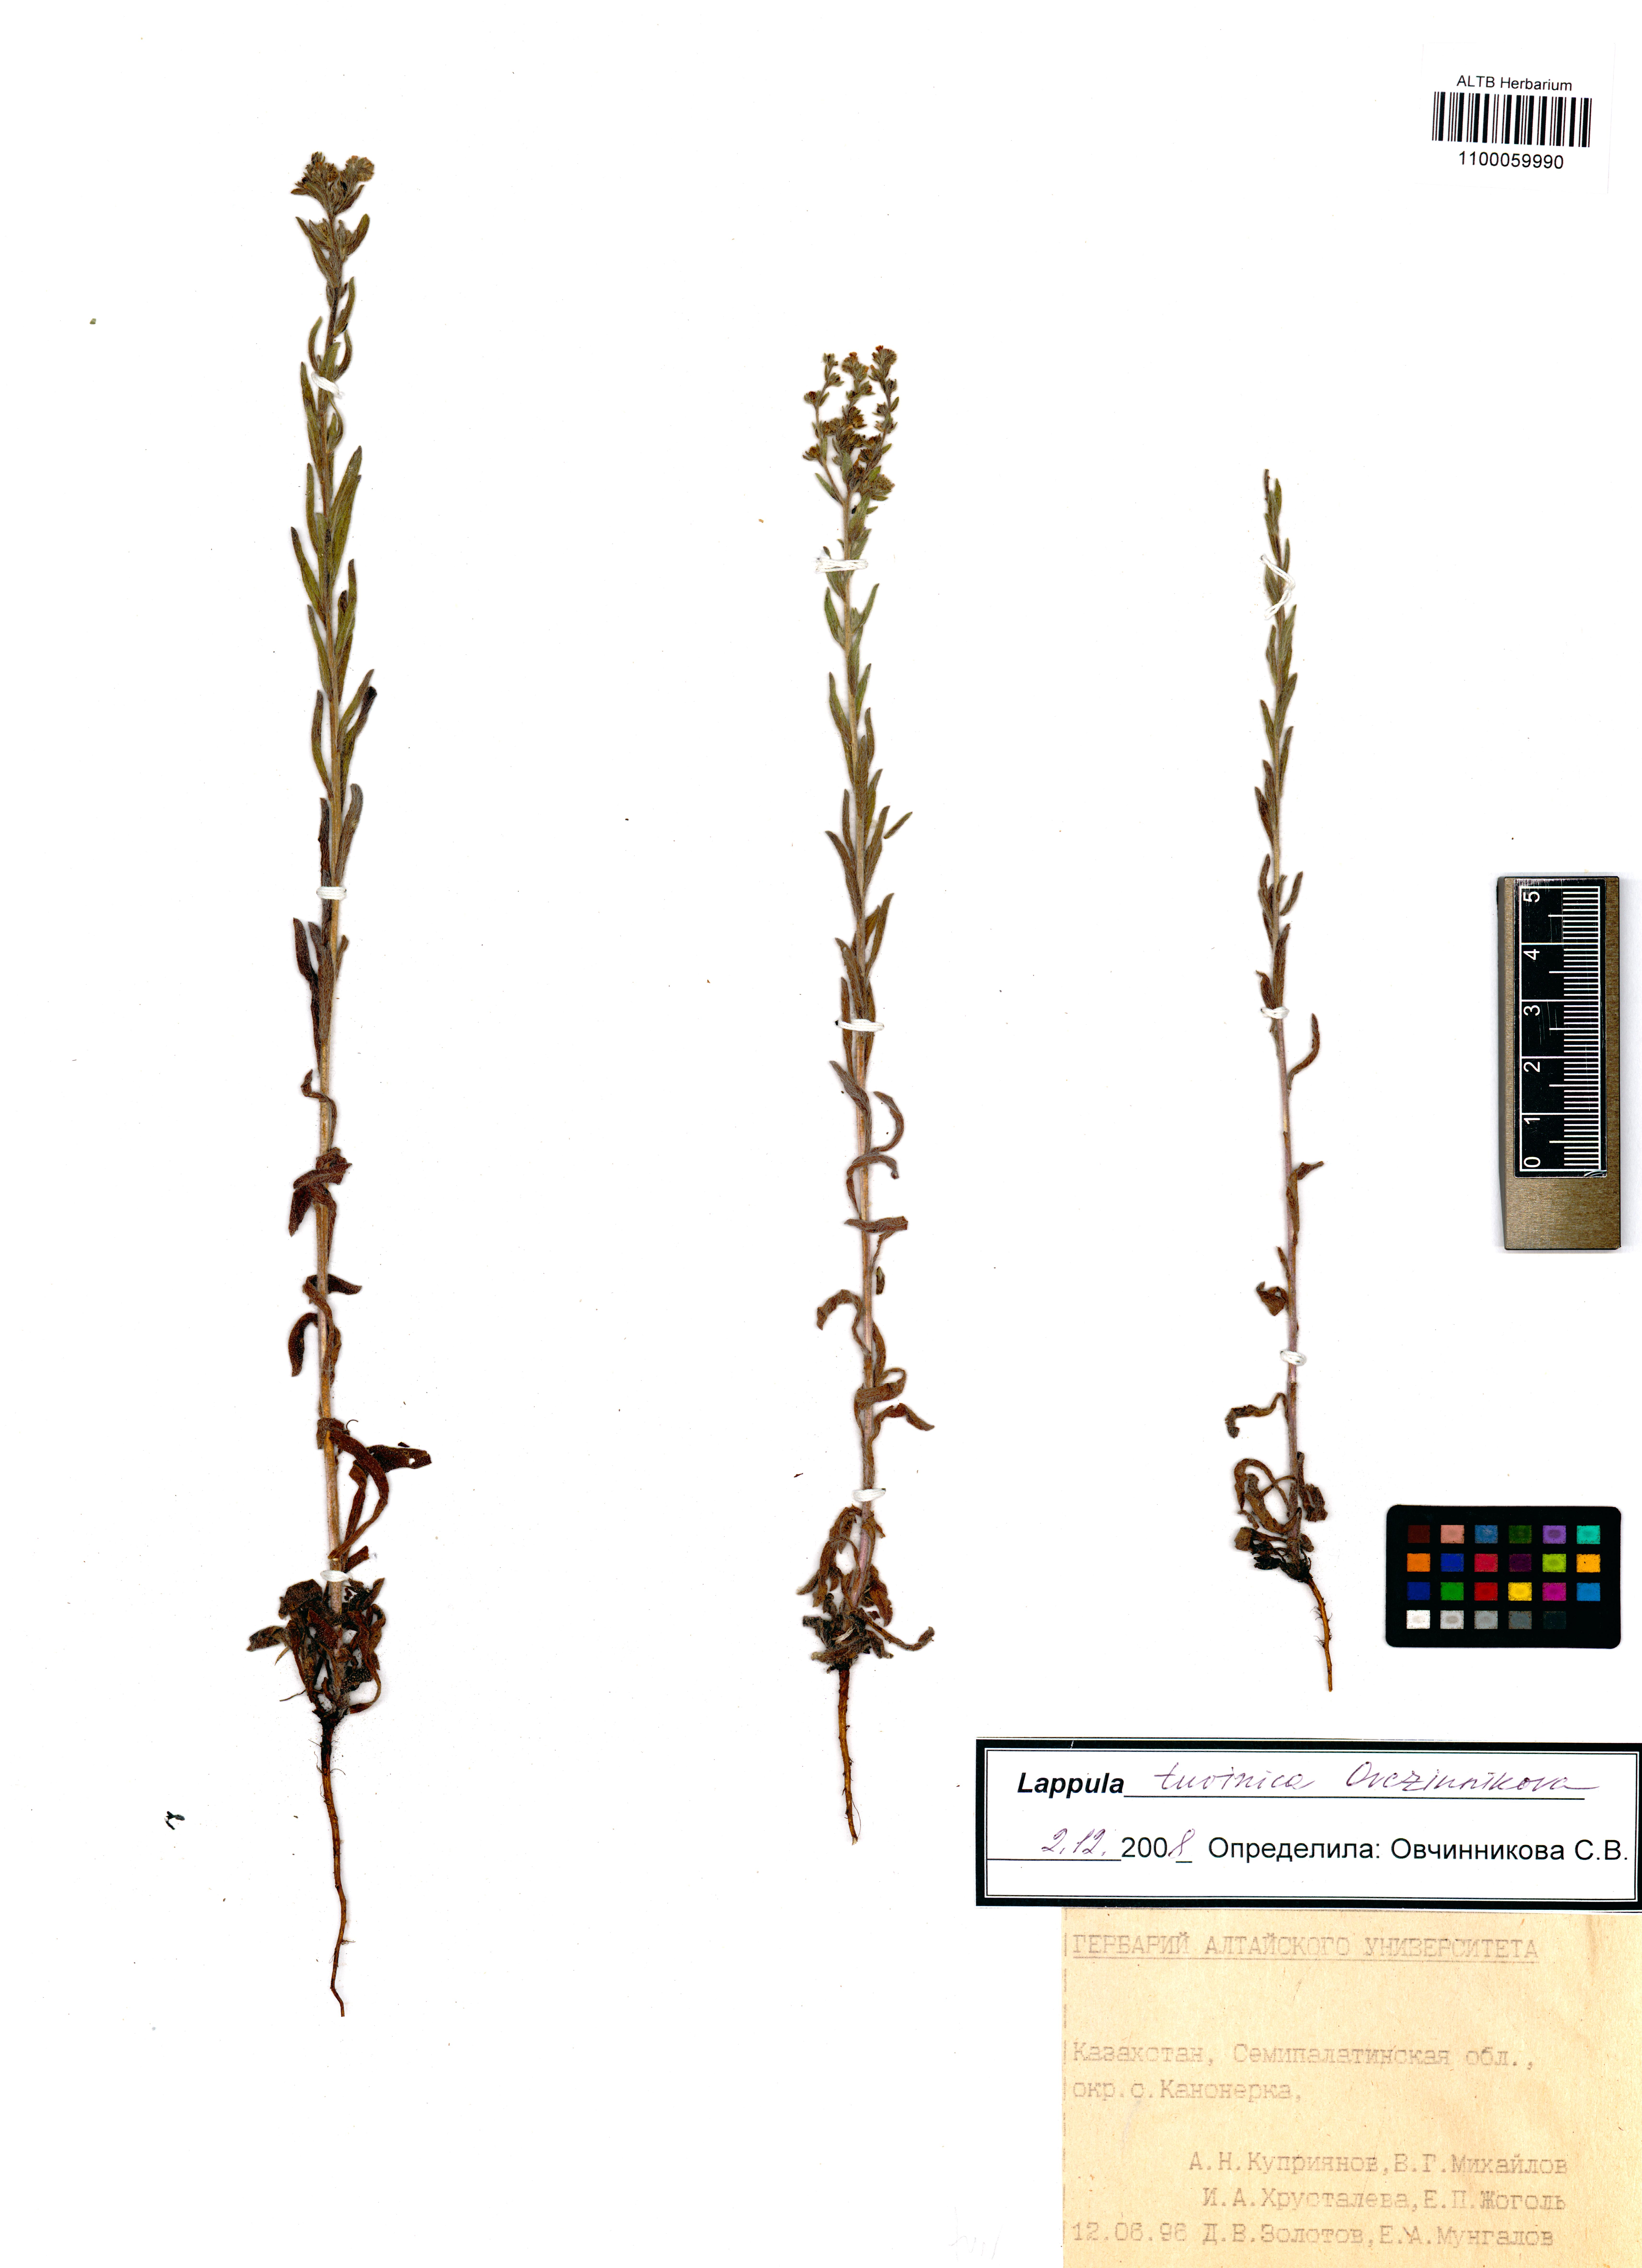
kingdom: Plantae
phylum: Tracheophyta
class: Magnoliopsida
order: Boraginales
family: Boraginaceae
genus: Lappula
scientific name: Lappula tuvinica
